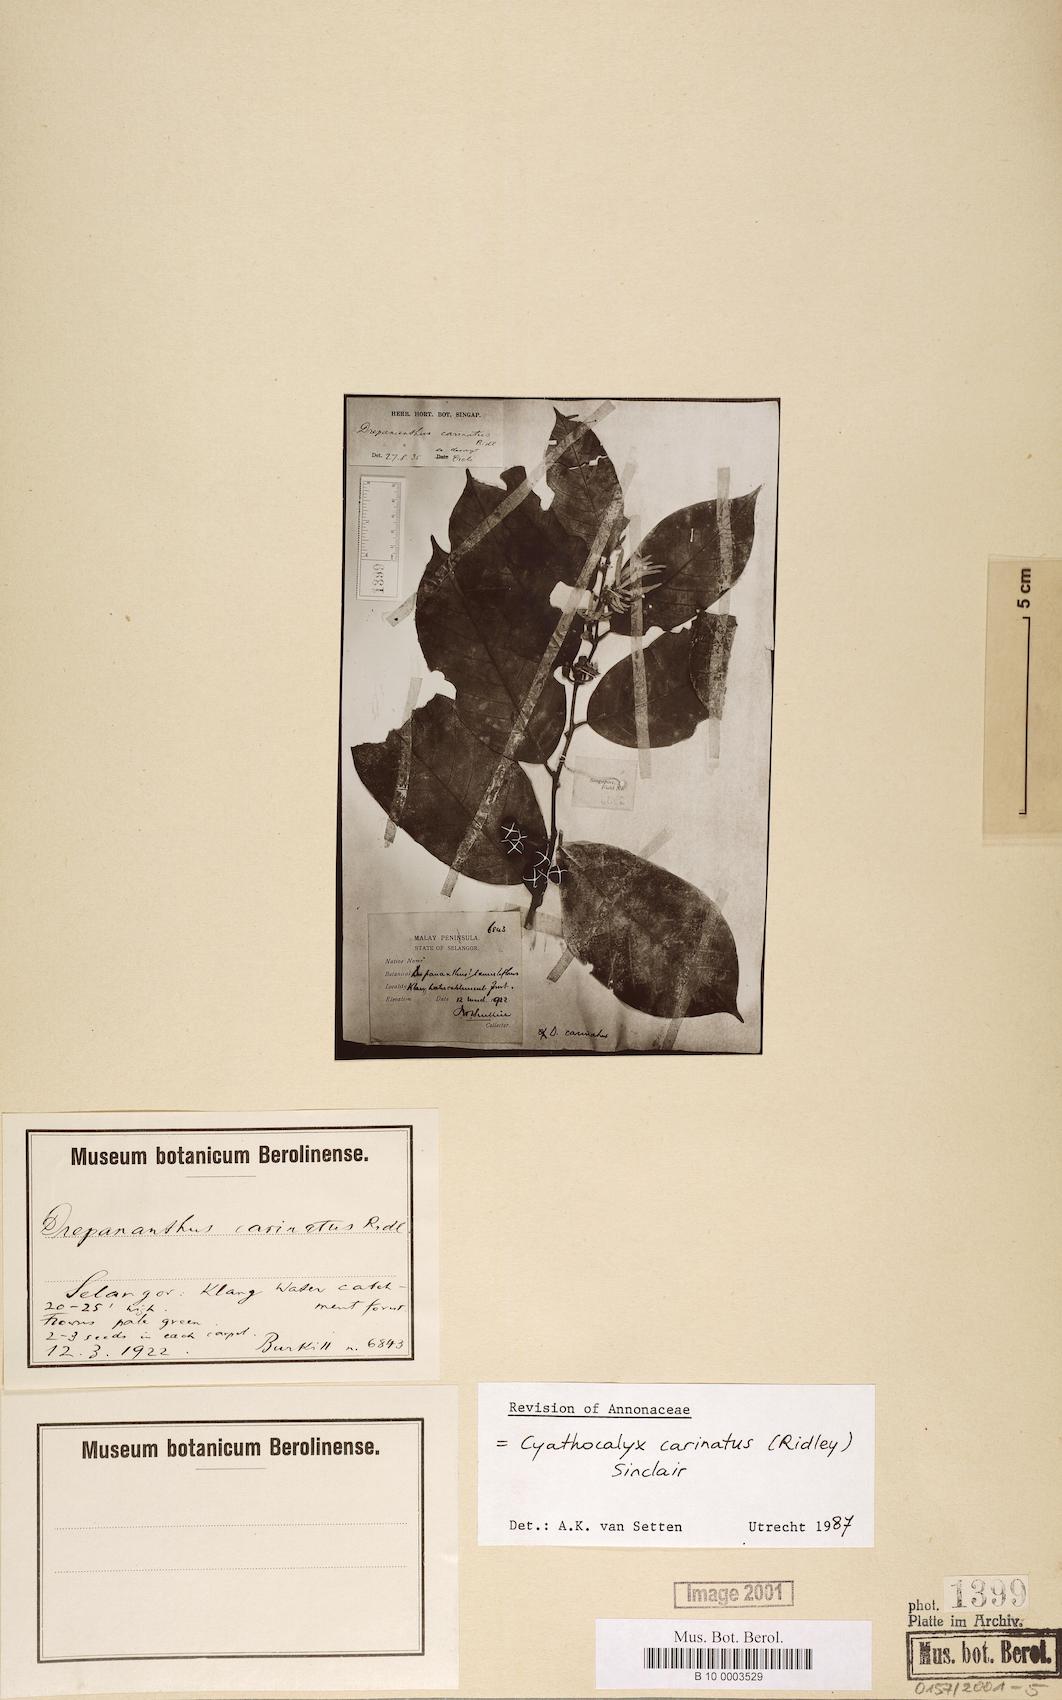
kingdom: Plantae
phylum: Tracheophyta
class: Magnoliopsida
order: Magnoliales
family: Annonaceae
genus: Drepananthus
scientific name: Drepananthus carinatus
